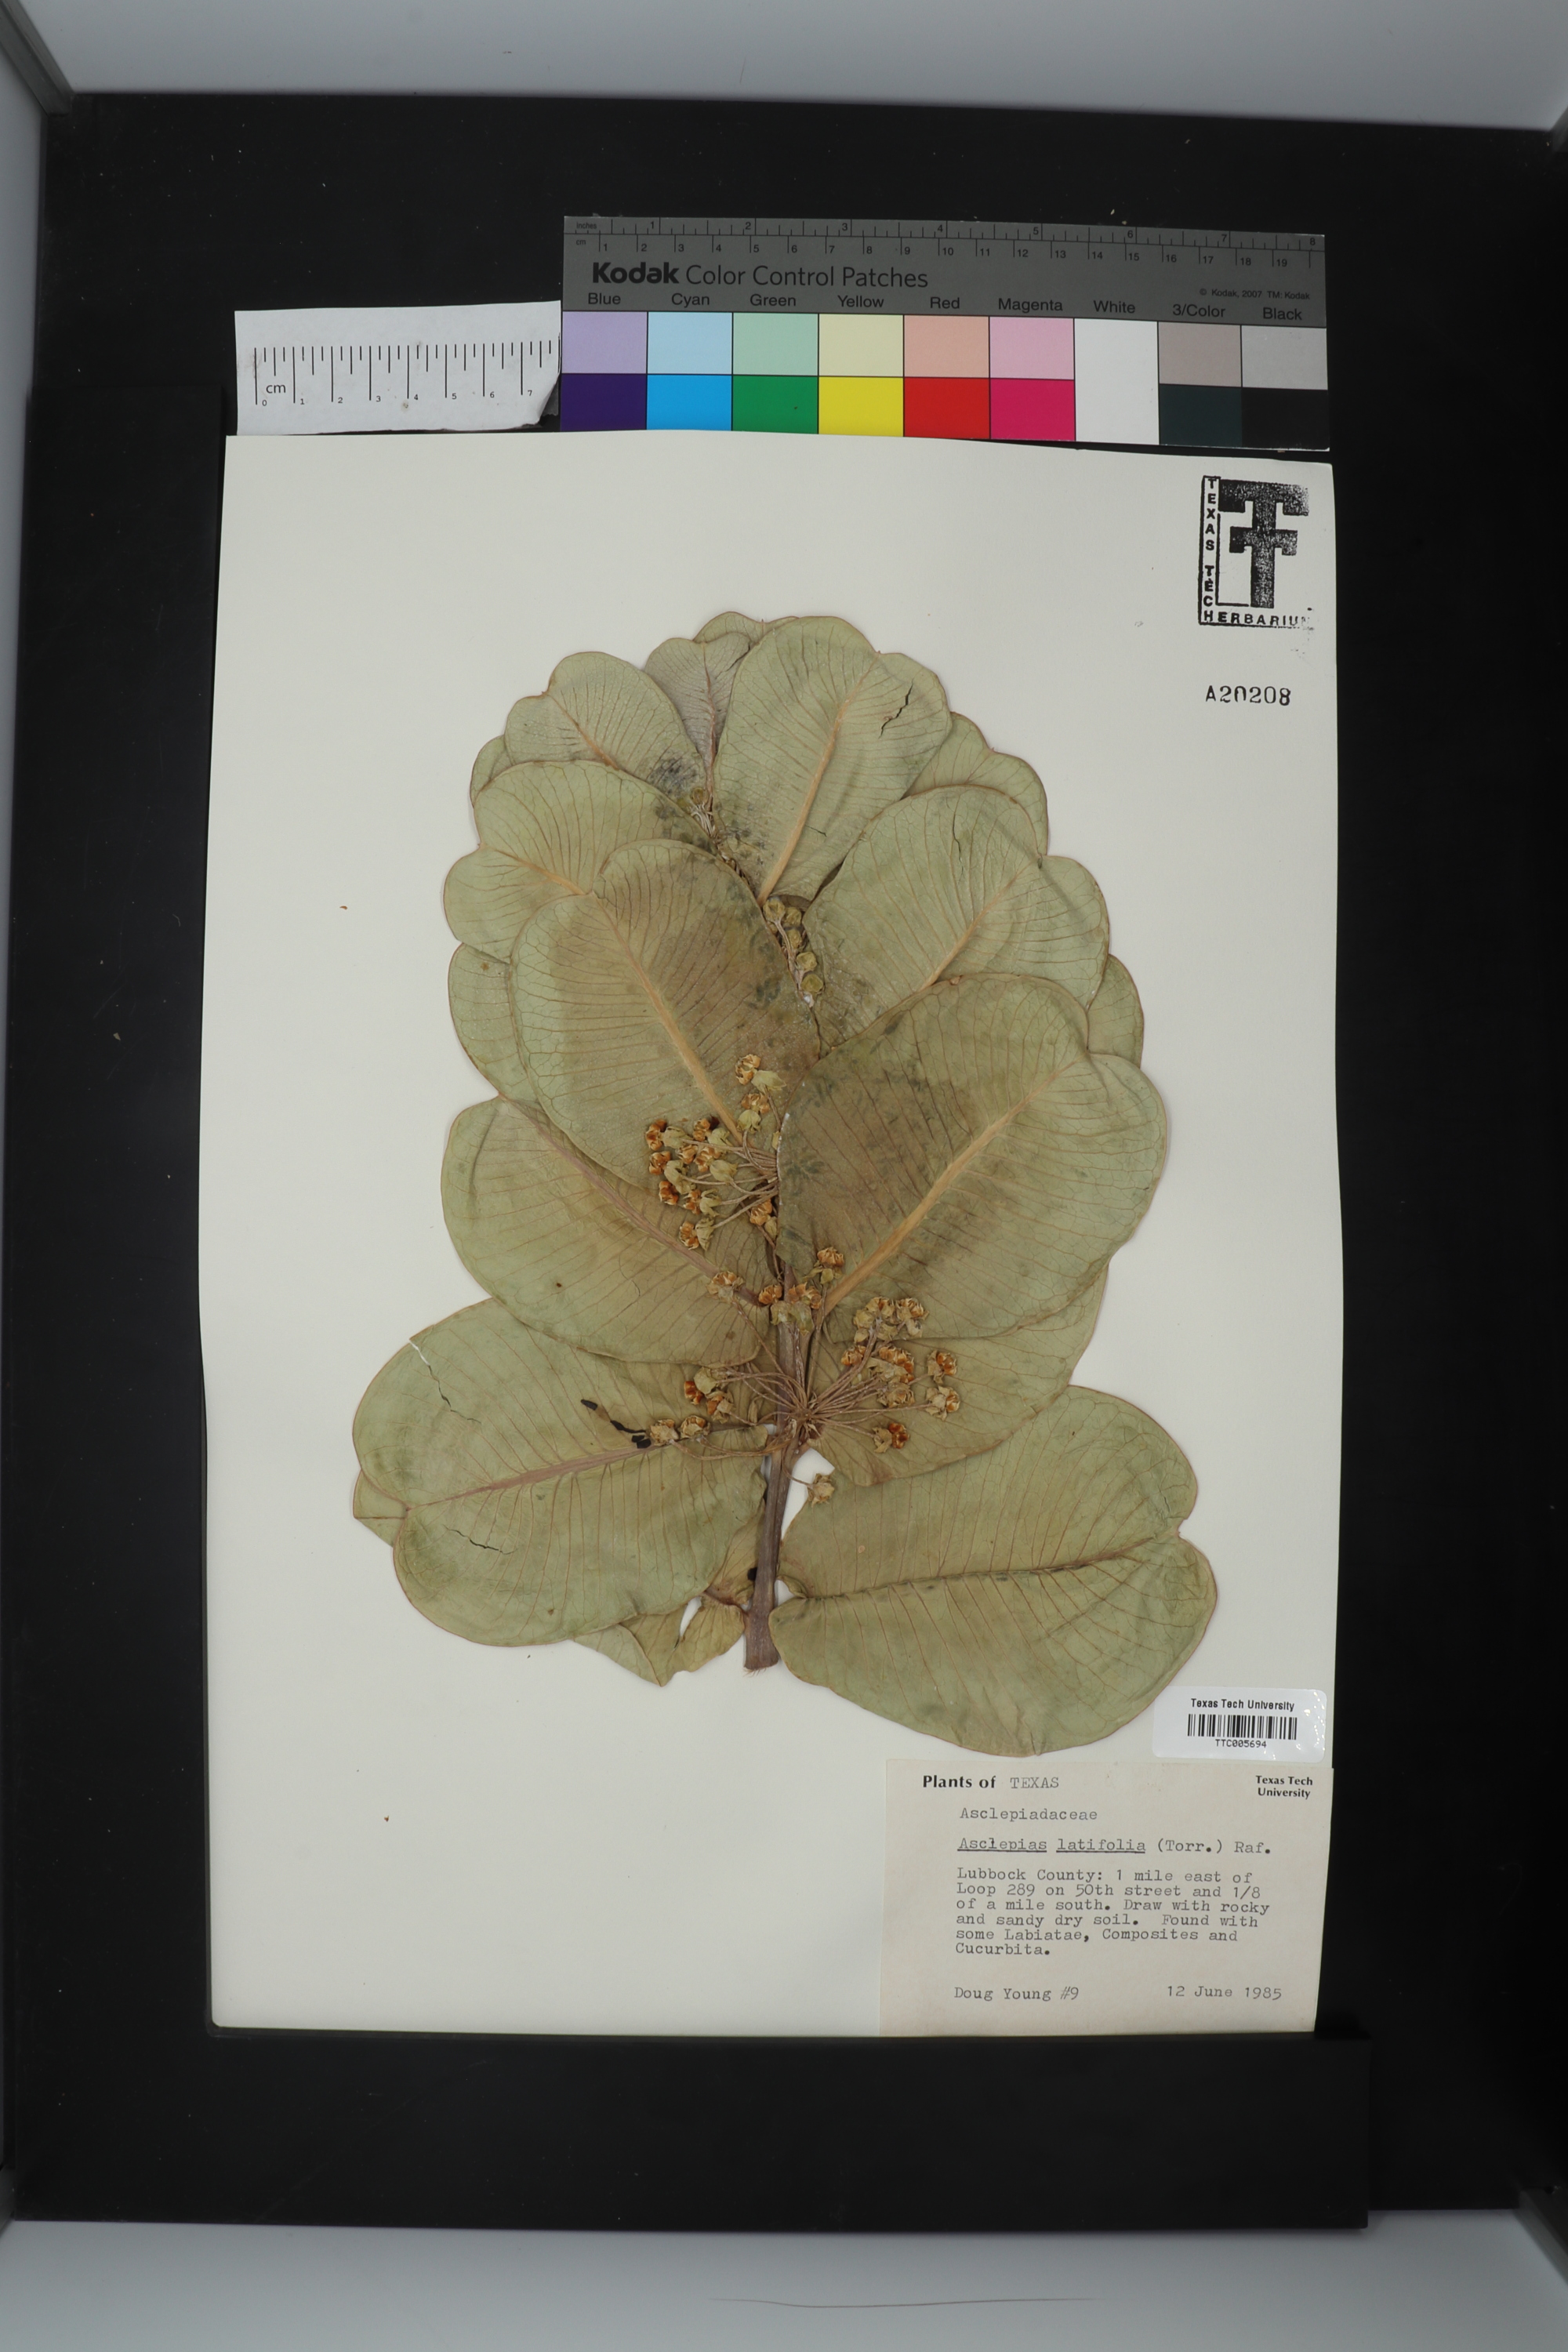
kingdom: Plantae
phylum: Tracheophyta
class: Magnoliopsida
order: Gentianales
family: Apocynaceae
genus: Asclepias
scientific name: Asclepias latifolia
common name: Broadleaf milkweed
